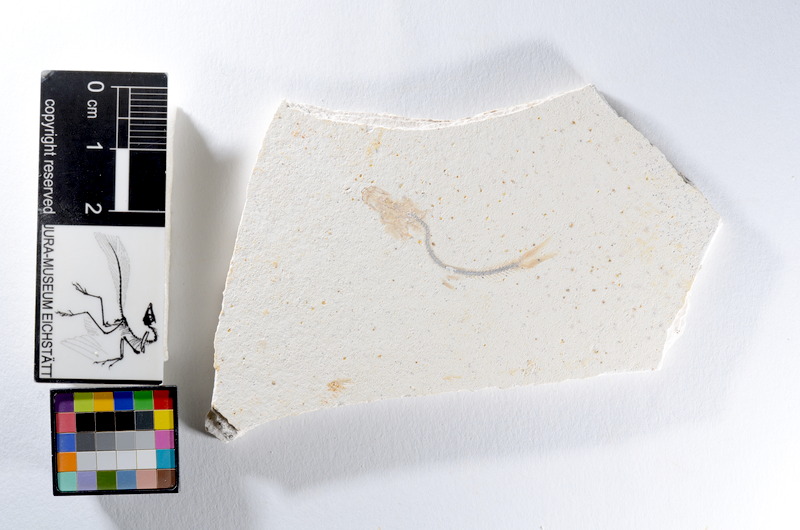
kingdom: Animalia
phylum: Chordata
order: Salmoniformes
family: Orthogonikleithridae
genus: Orthogonikleithrus
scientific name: Orthogonikleithrus hoelli
